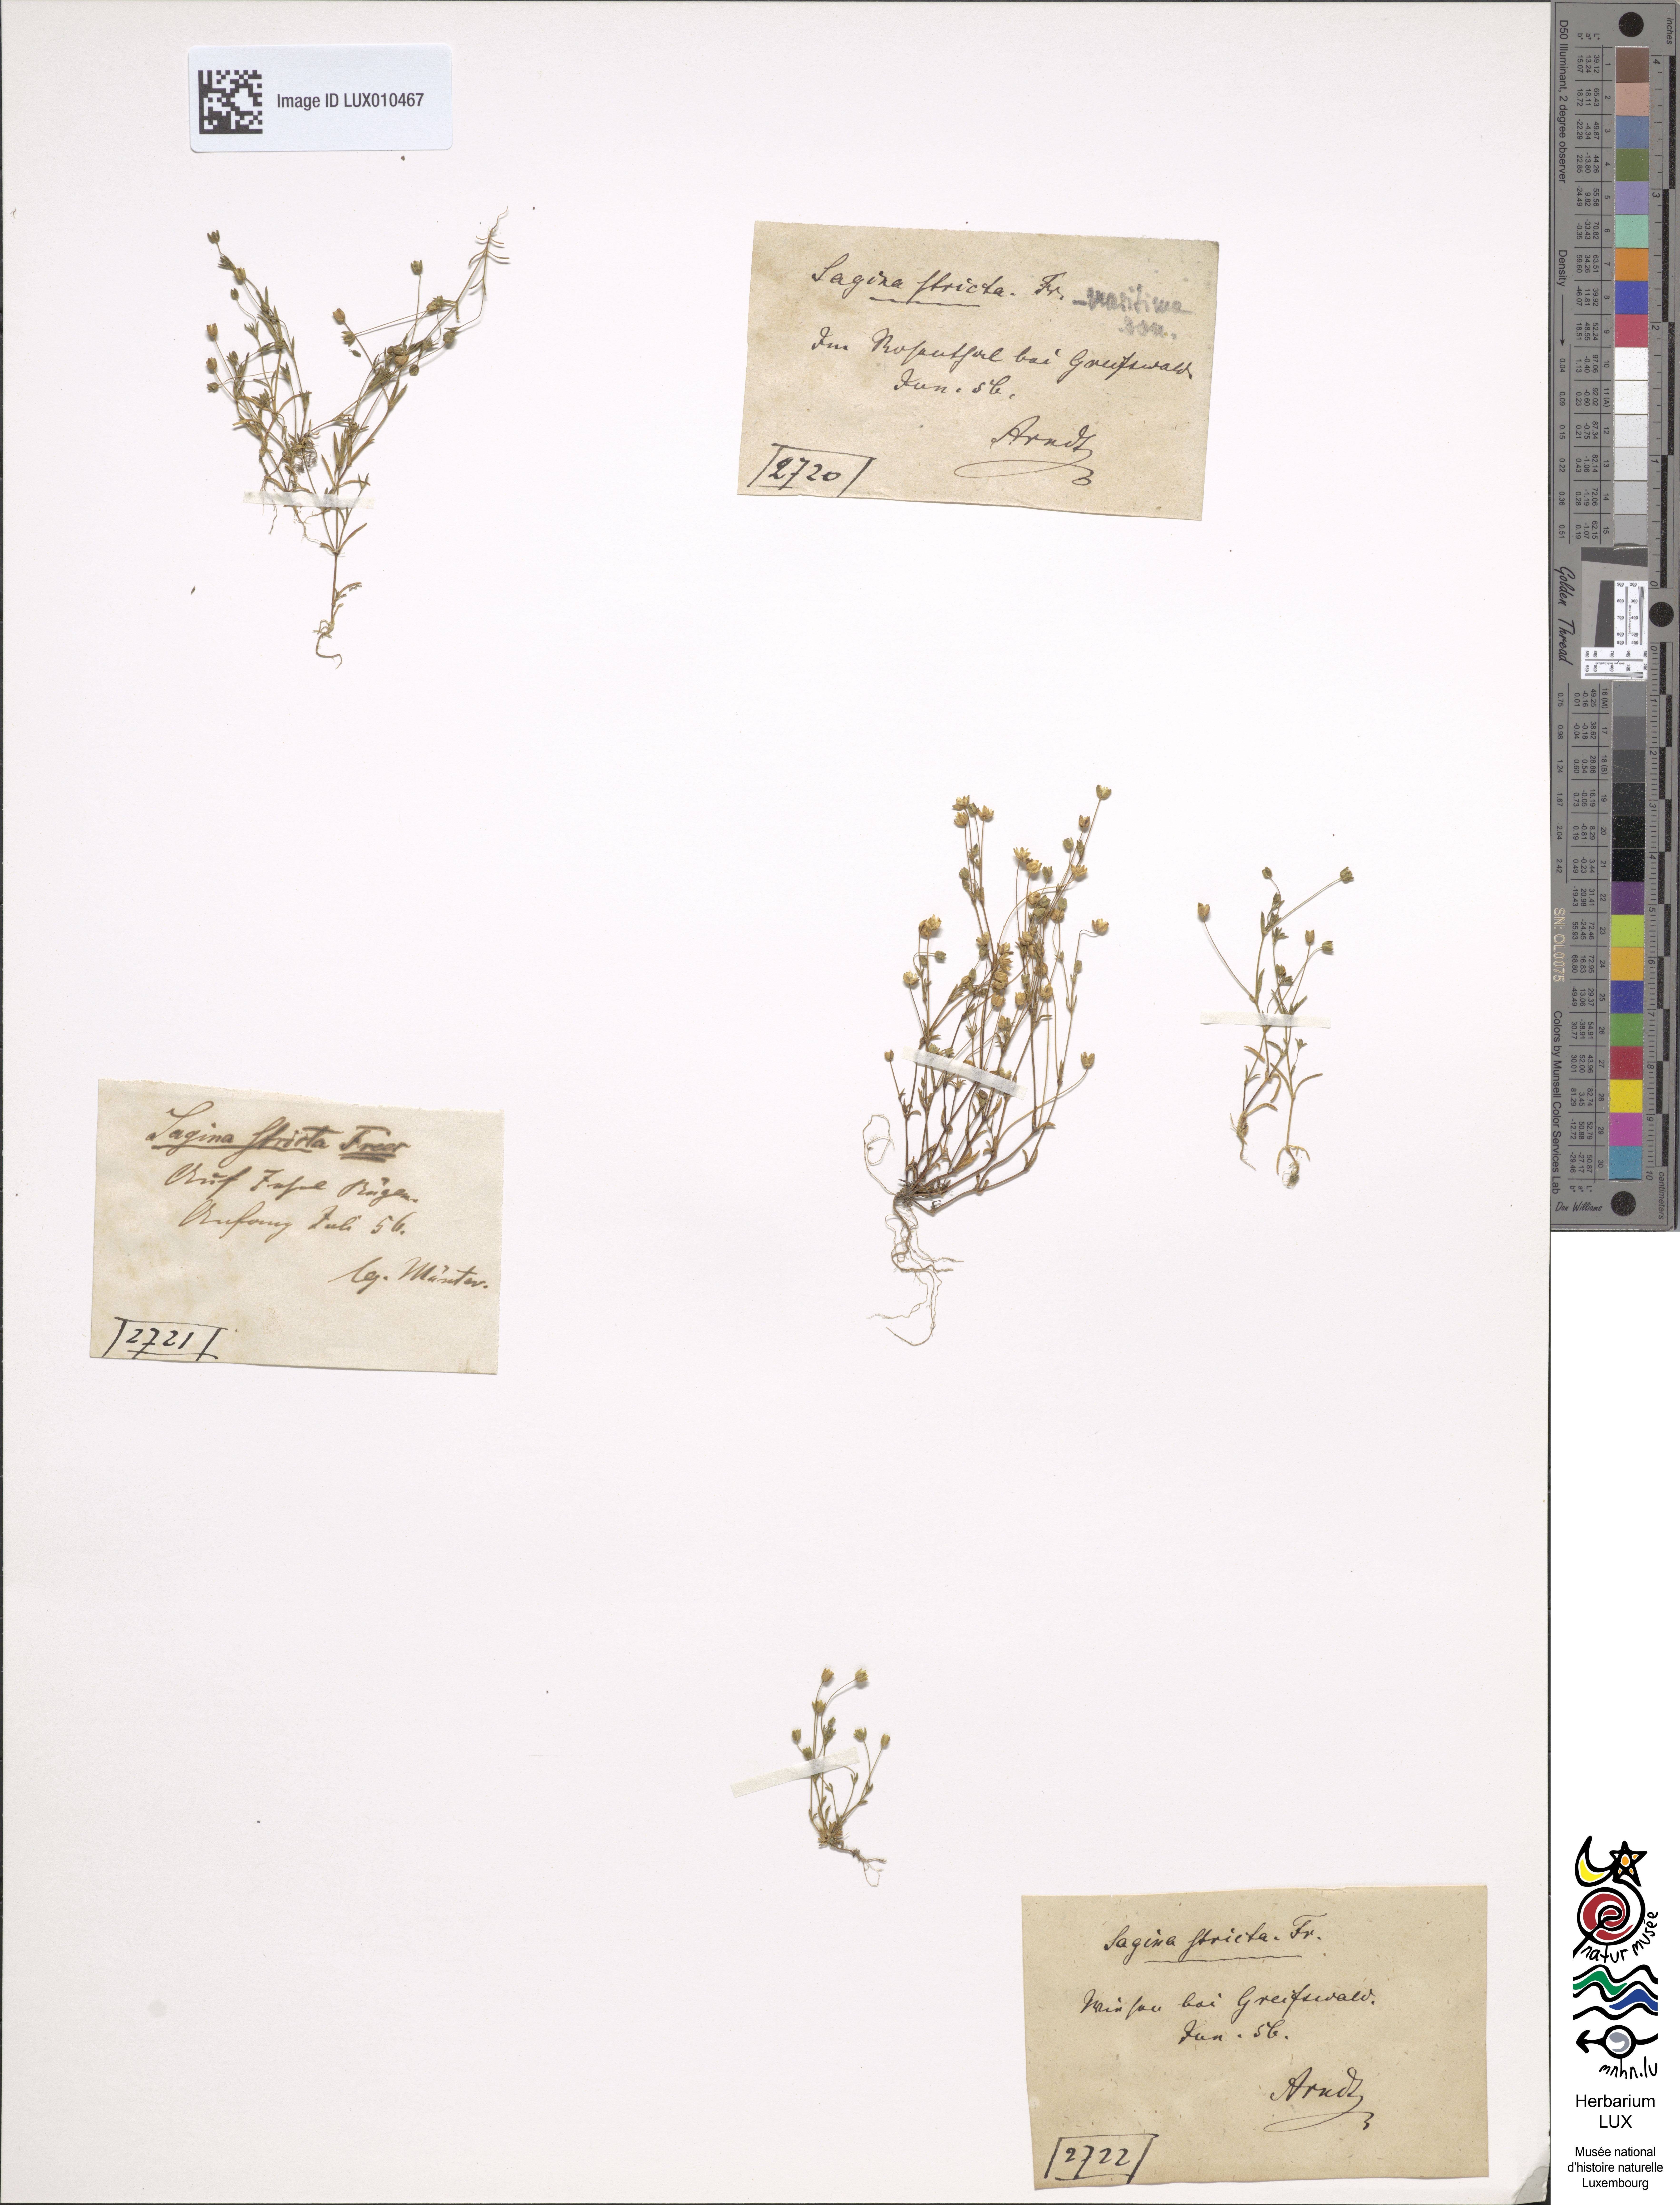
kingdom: Plantae
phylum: Tracheophyta
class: Magnoliopsida
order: Caryophyllales
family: Caryophyllaceae
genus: Sagina
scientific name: Sagina maritima
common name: Sea pearlwort
